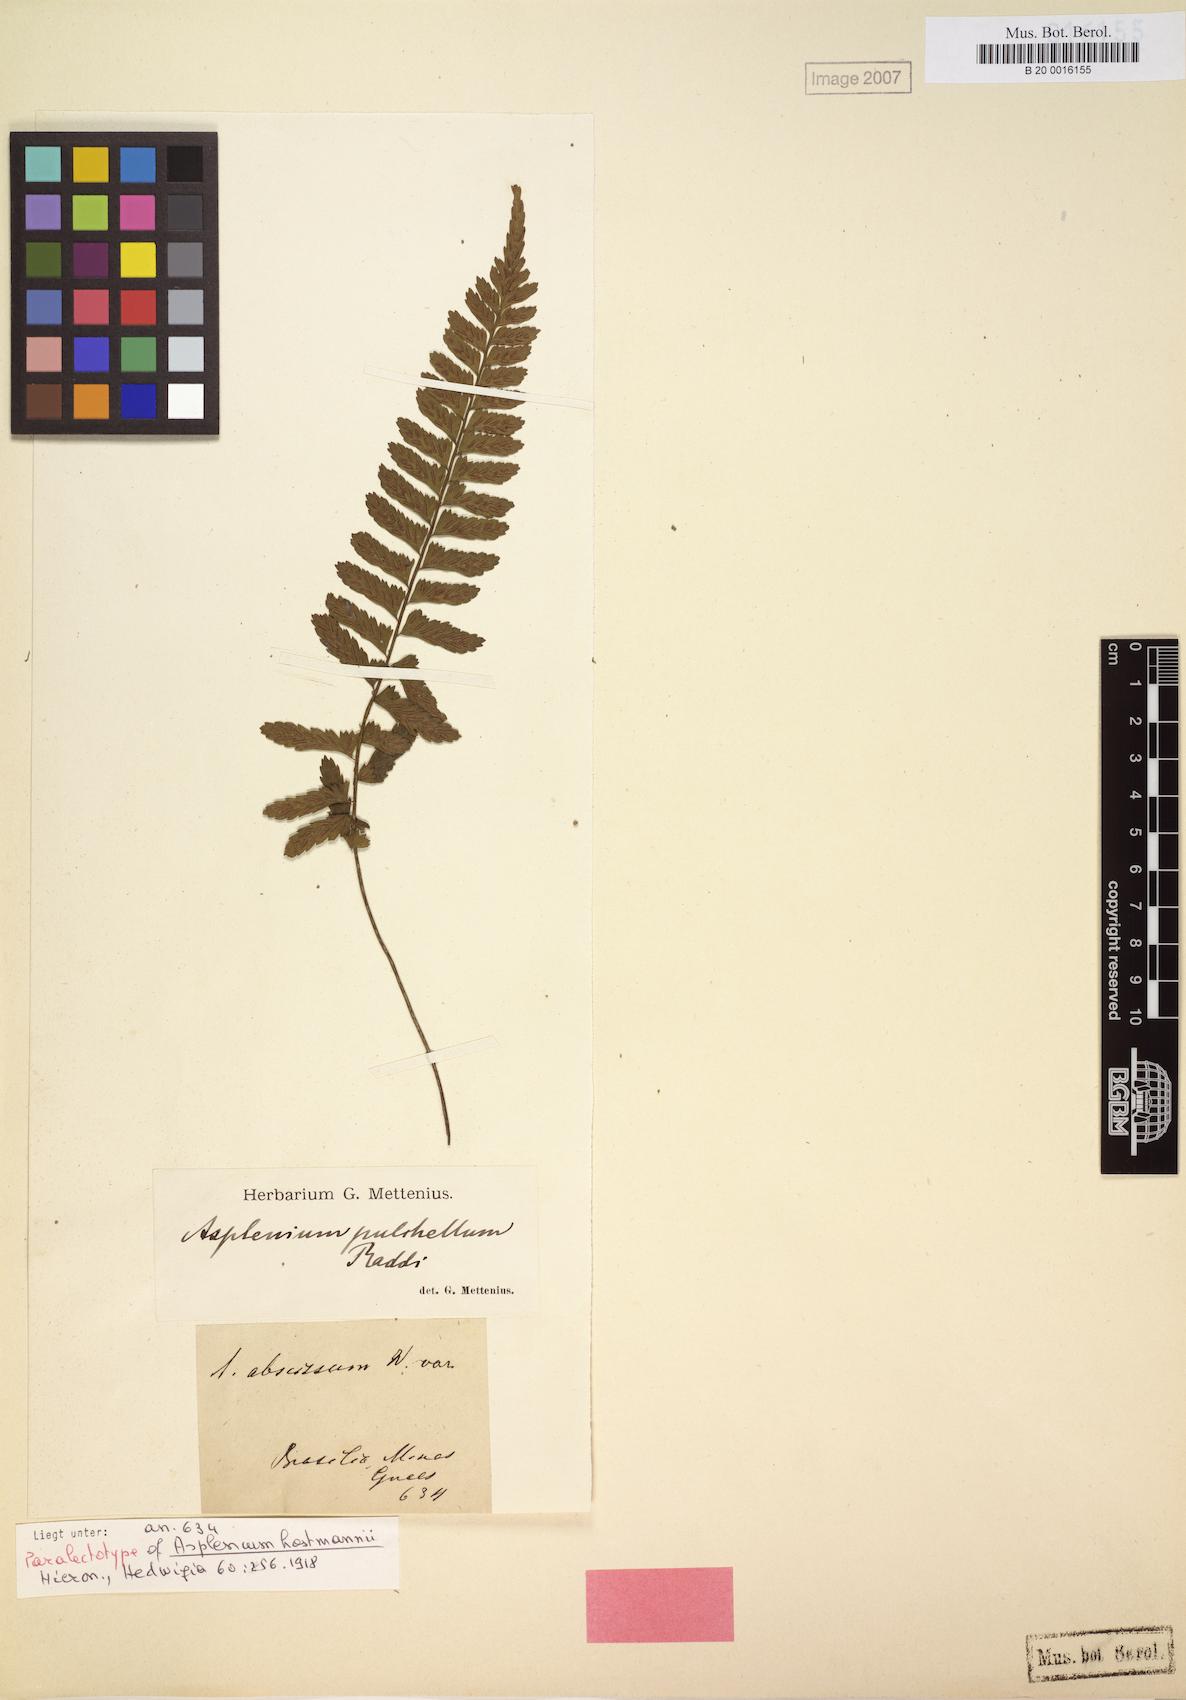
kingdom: Plantae
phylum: Tracheophyta
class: Polypodiopsida
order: Polypodiales
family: Aspleniaceae
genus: Asplenium
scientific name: Asplenium hostmannii
